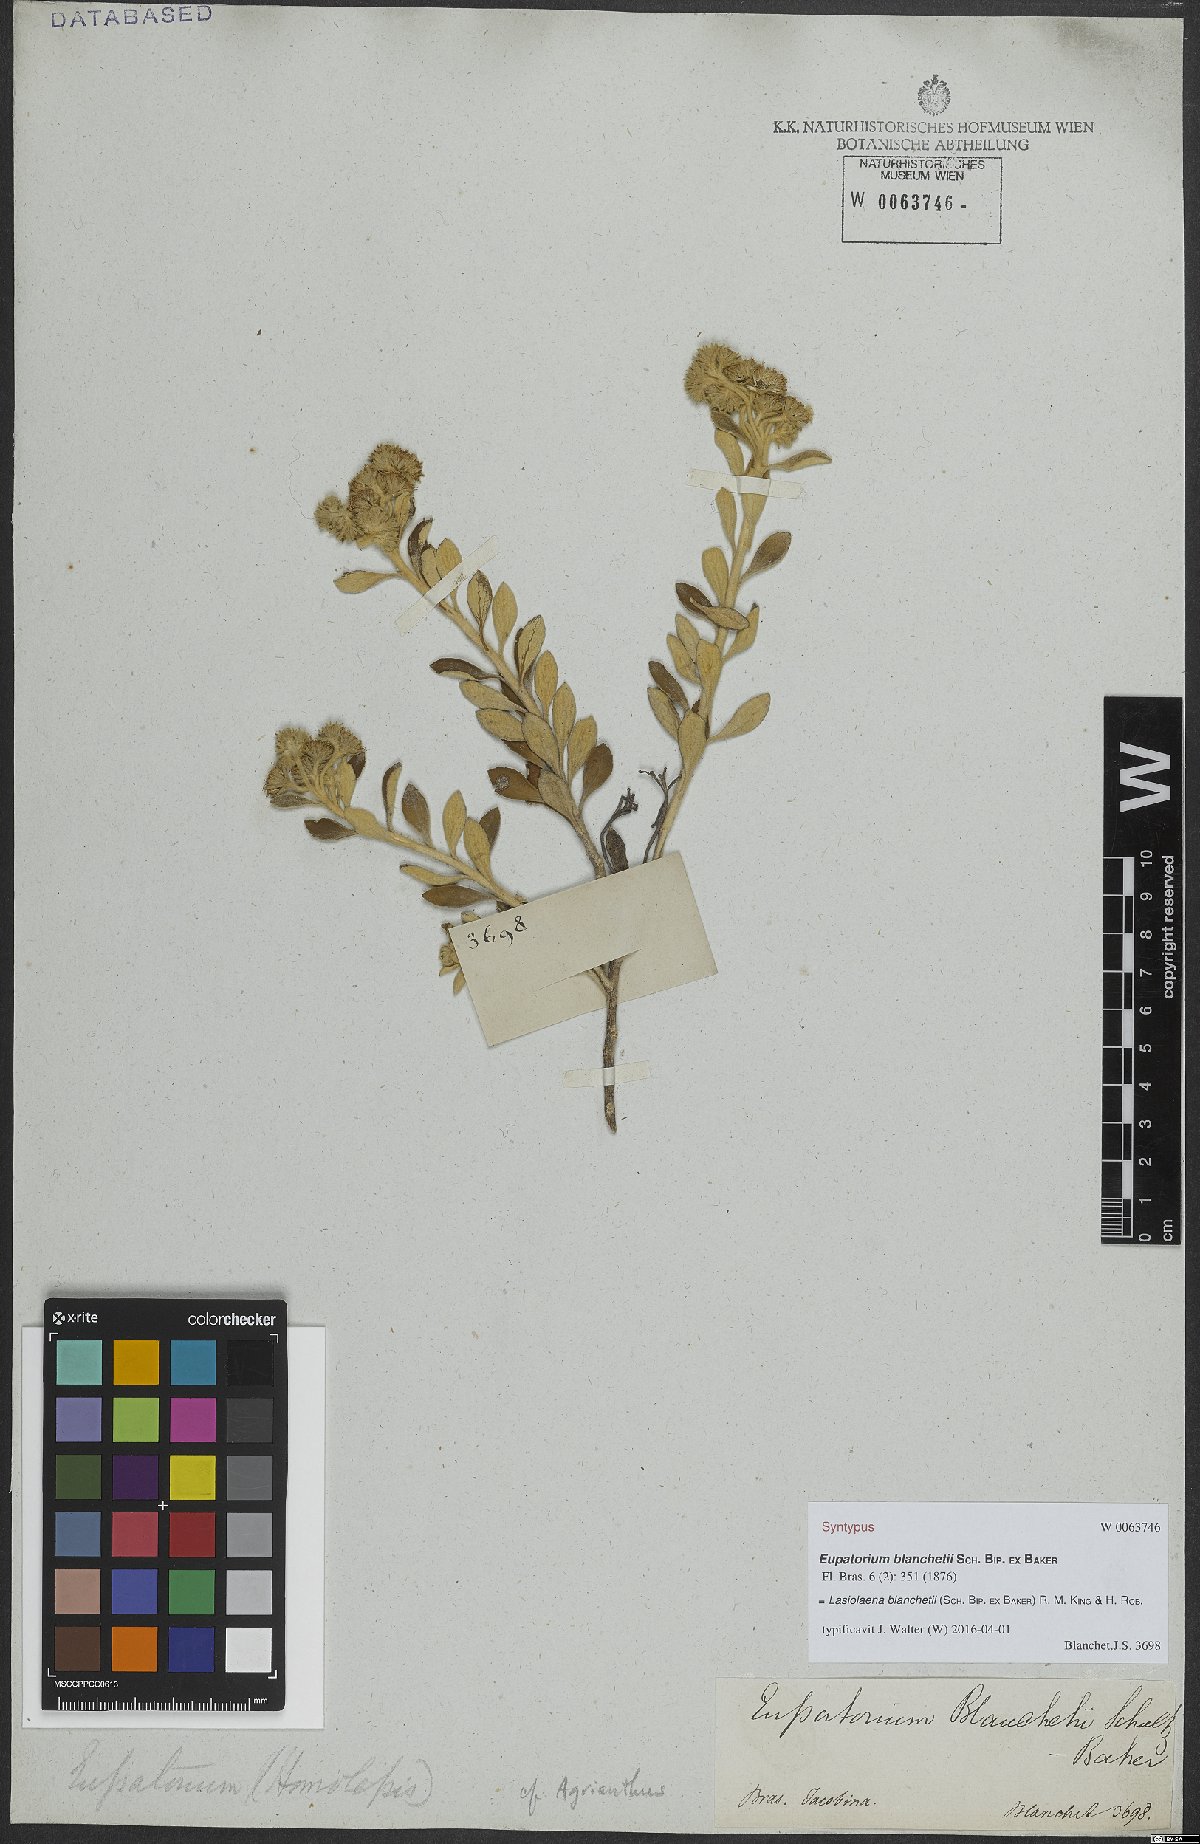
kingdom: Plantae
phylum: Tracheophyta
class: Magnoliopsida
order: Asterales
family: Asteraceae
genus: Lasiolaena
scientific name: Lasiolaena blanchetii
